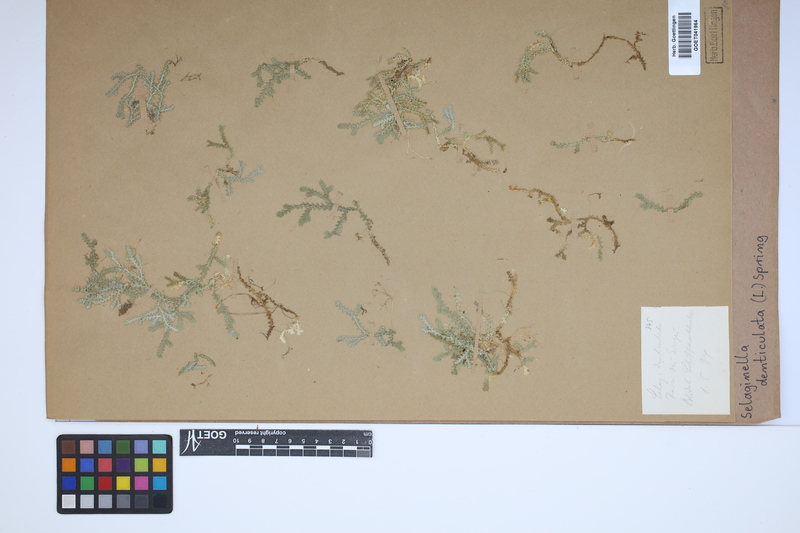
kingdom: Plantae
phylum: Tracheophyta
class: Lycopodiopsida
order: Selaginellales
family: Selaginellaceae
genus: Selaginella
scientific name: Selaginella denticulata
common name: Toothed-leaved clubmoss
